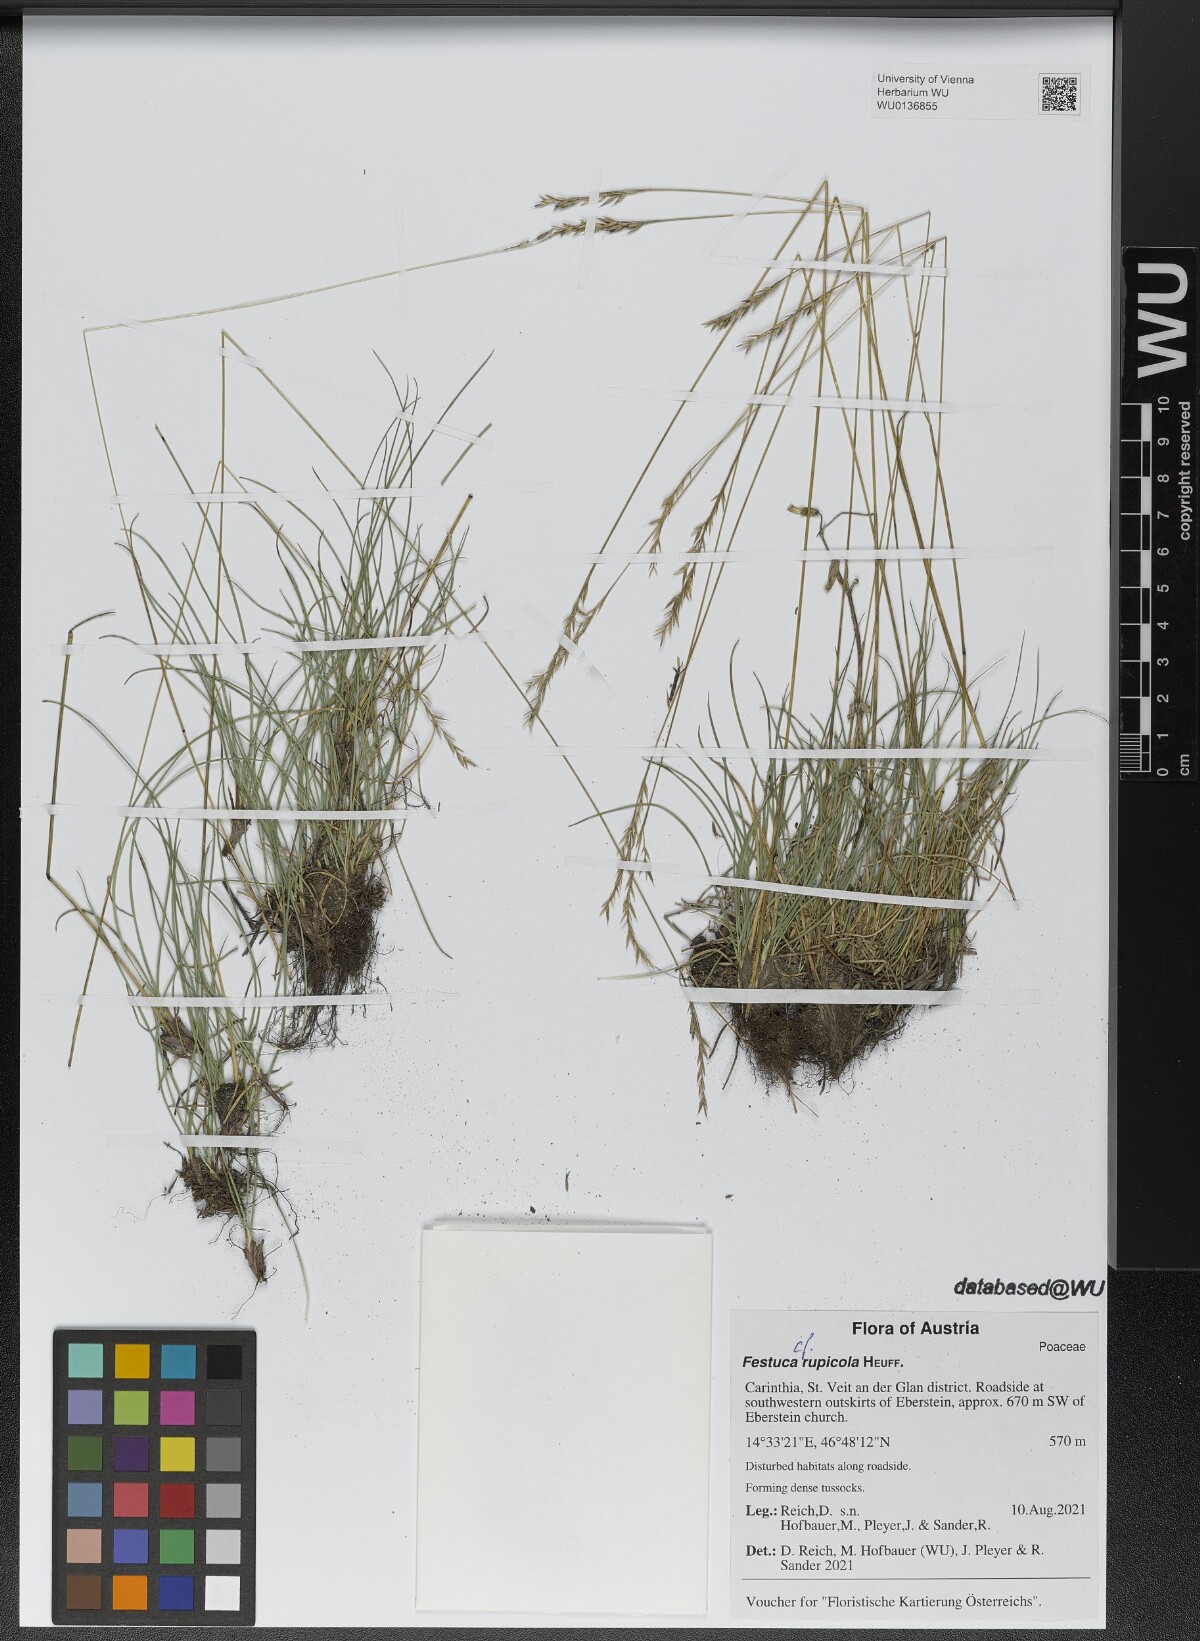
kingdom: Plantae
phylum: Tracheophyta
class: Liliopsida
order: Poales
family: Poaceae
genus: Festuca
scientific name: Festuca rupicola
